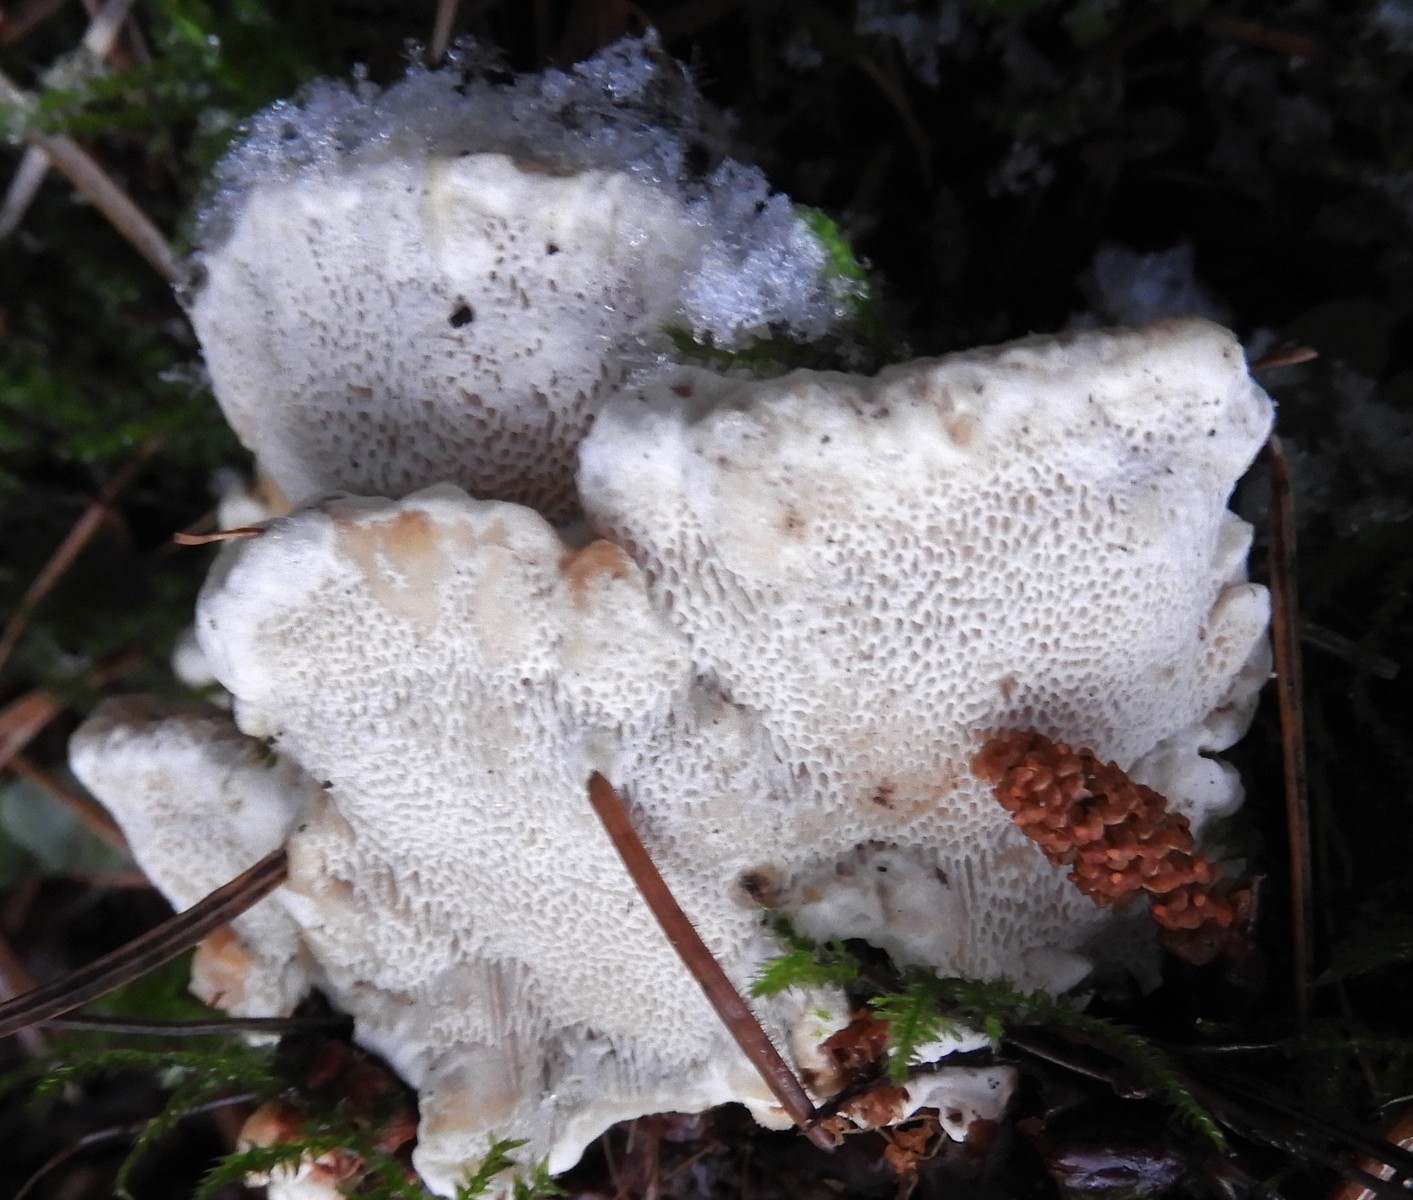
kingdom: Fungi
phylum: Basidiomycota
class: Agaricomycetes
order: Russulales
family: Bondarzewiaceae
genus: Heterobasidion
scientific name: Heterobasidion annosum
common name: almindelig rodfordærver
